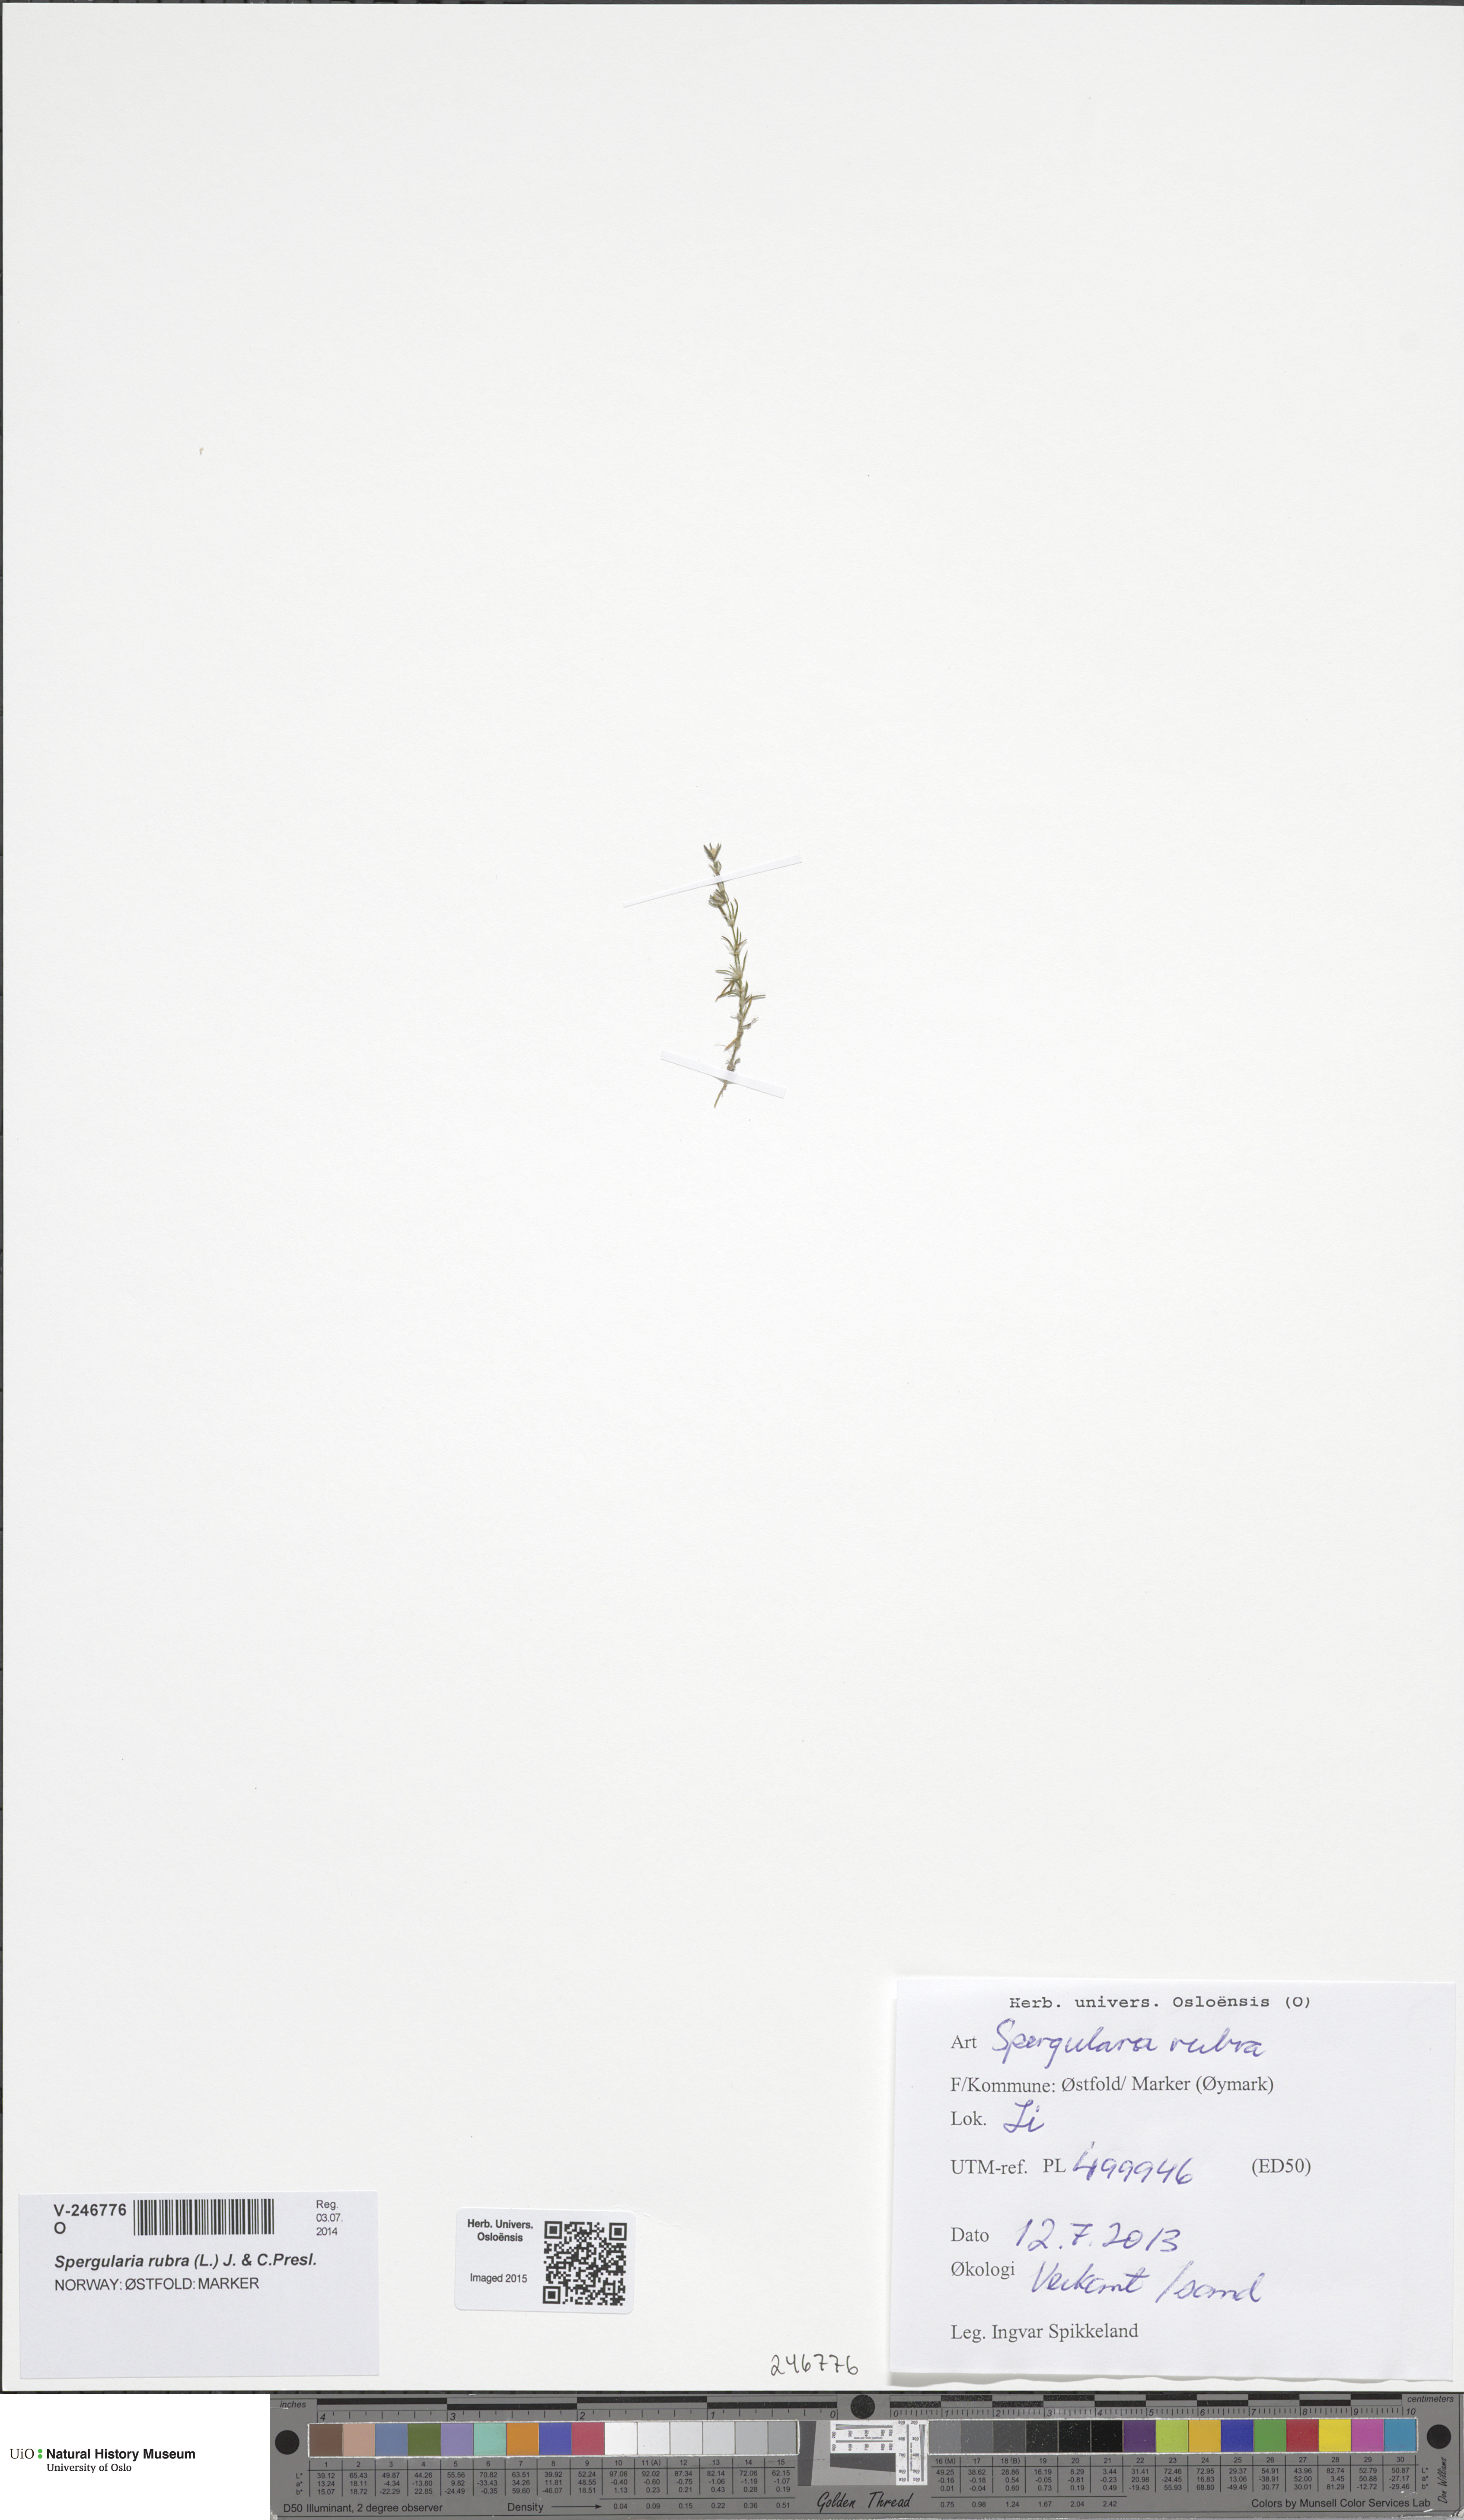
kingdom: Plantae
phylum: Tracheophyta
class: Magnoliopsida
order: Caryophyllales
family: Caryophyllaceae
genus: Spergularia
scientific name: Spergularia rubra
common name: Red sand-spurrey
